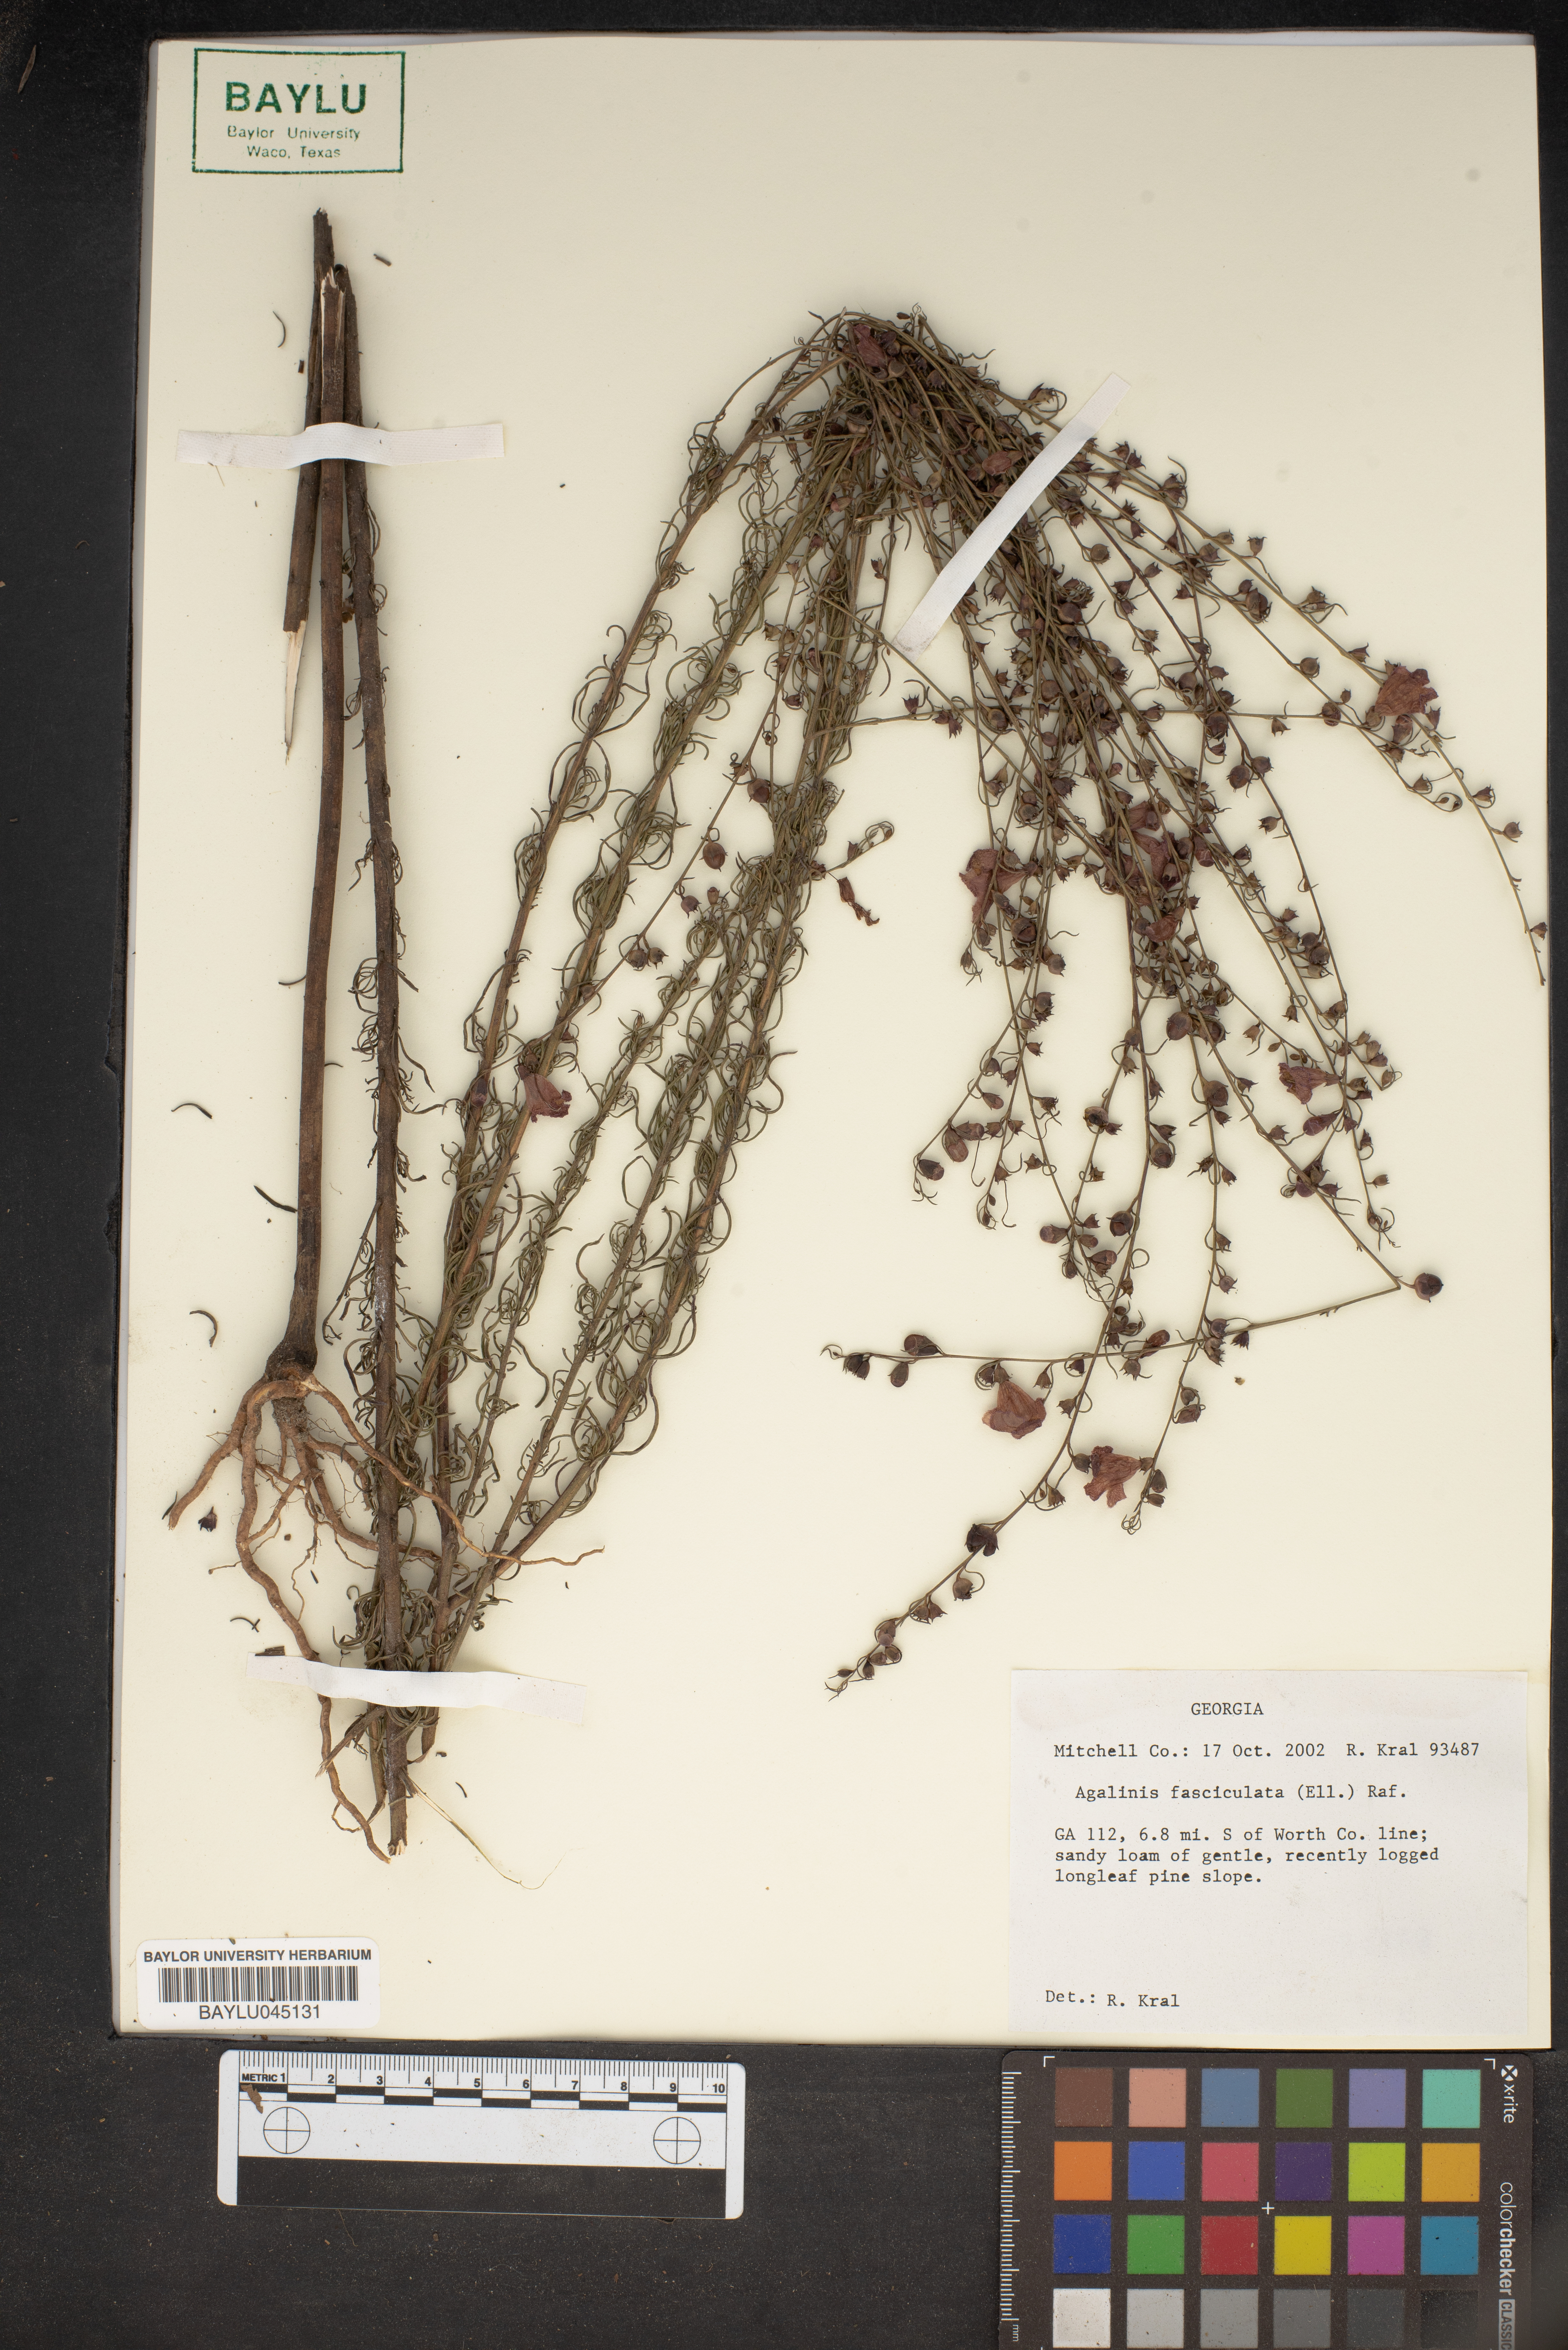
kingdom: Plantae
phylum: Tracheophyta
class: Magnoliopsida
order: Lamiales
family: Orobanchaceae
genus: Agalinis
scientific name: Agalinis fasciculata
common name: Beach false foxglove
